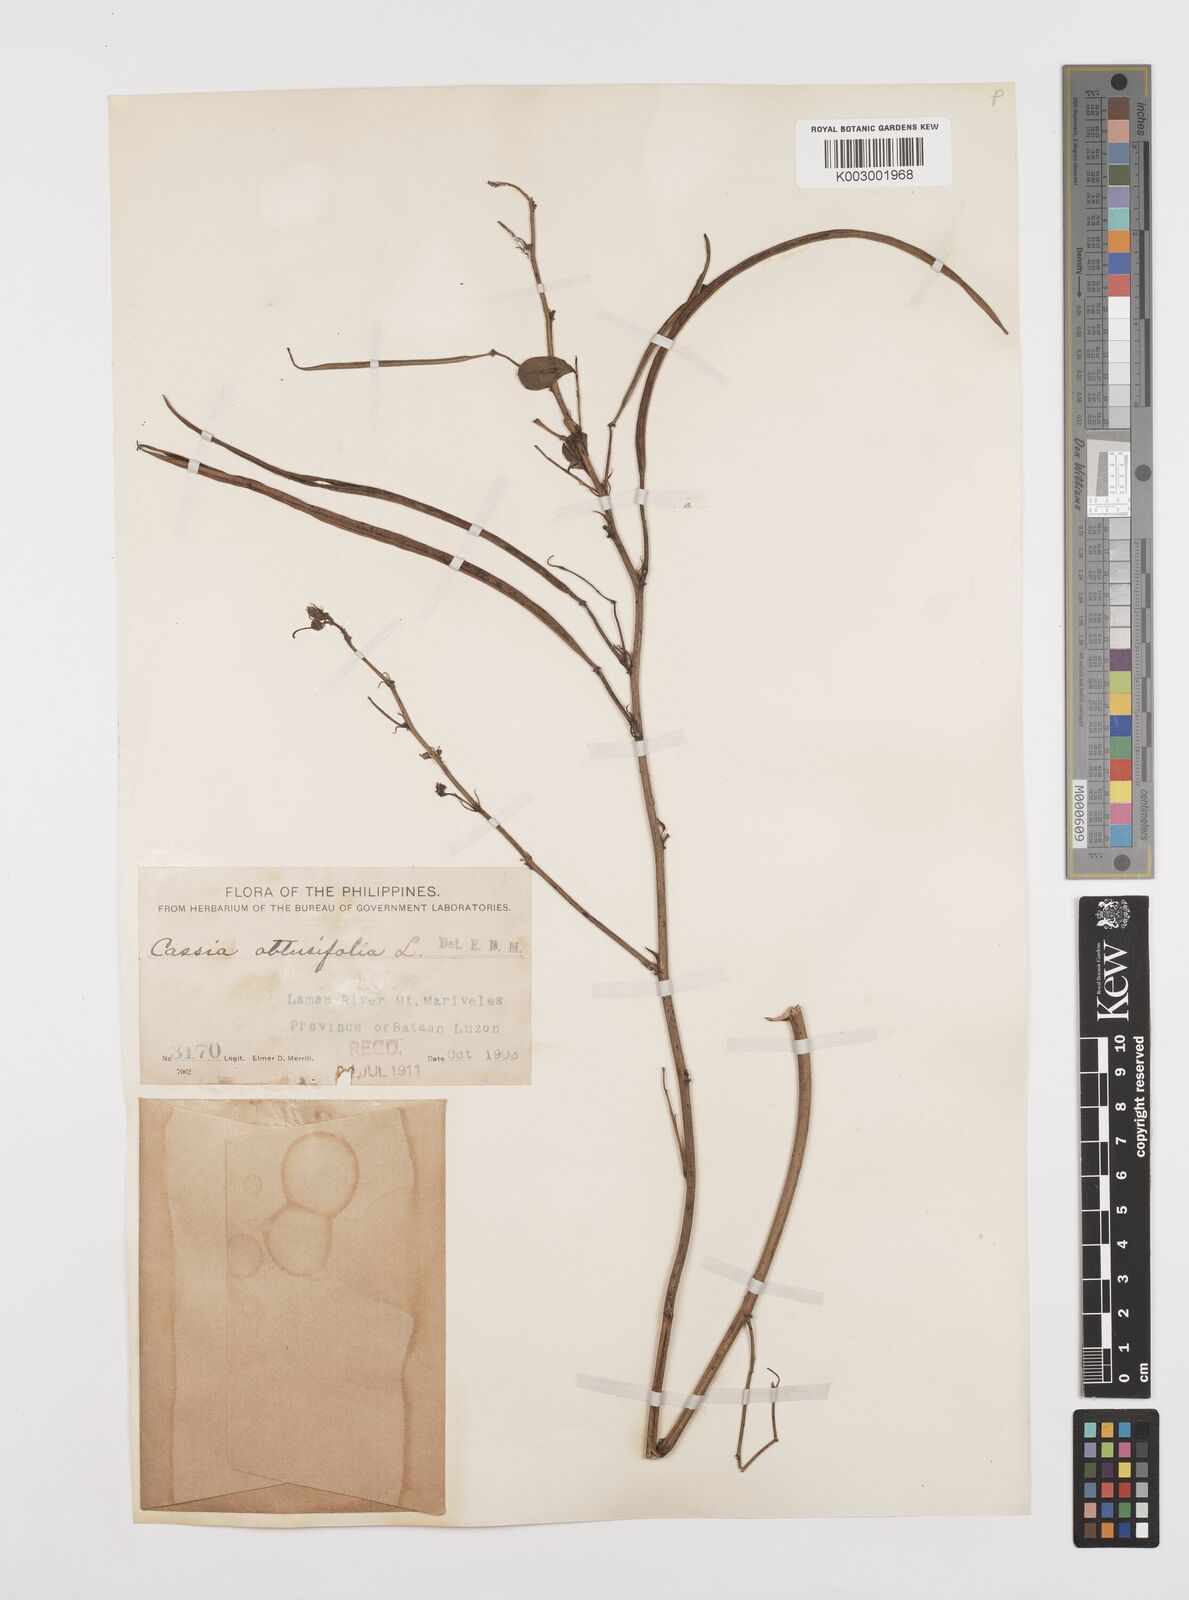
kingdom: Plantae
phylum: Tracheophyta
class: Magnoliopsida
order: Fabales
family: Fabaceae
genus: Senna
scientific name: Senna obtusifolia
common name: Java-bean
